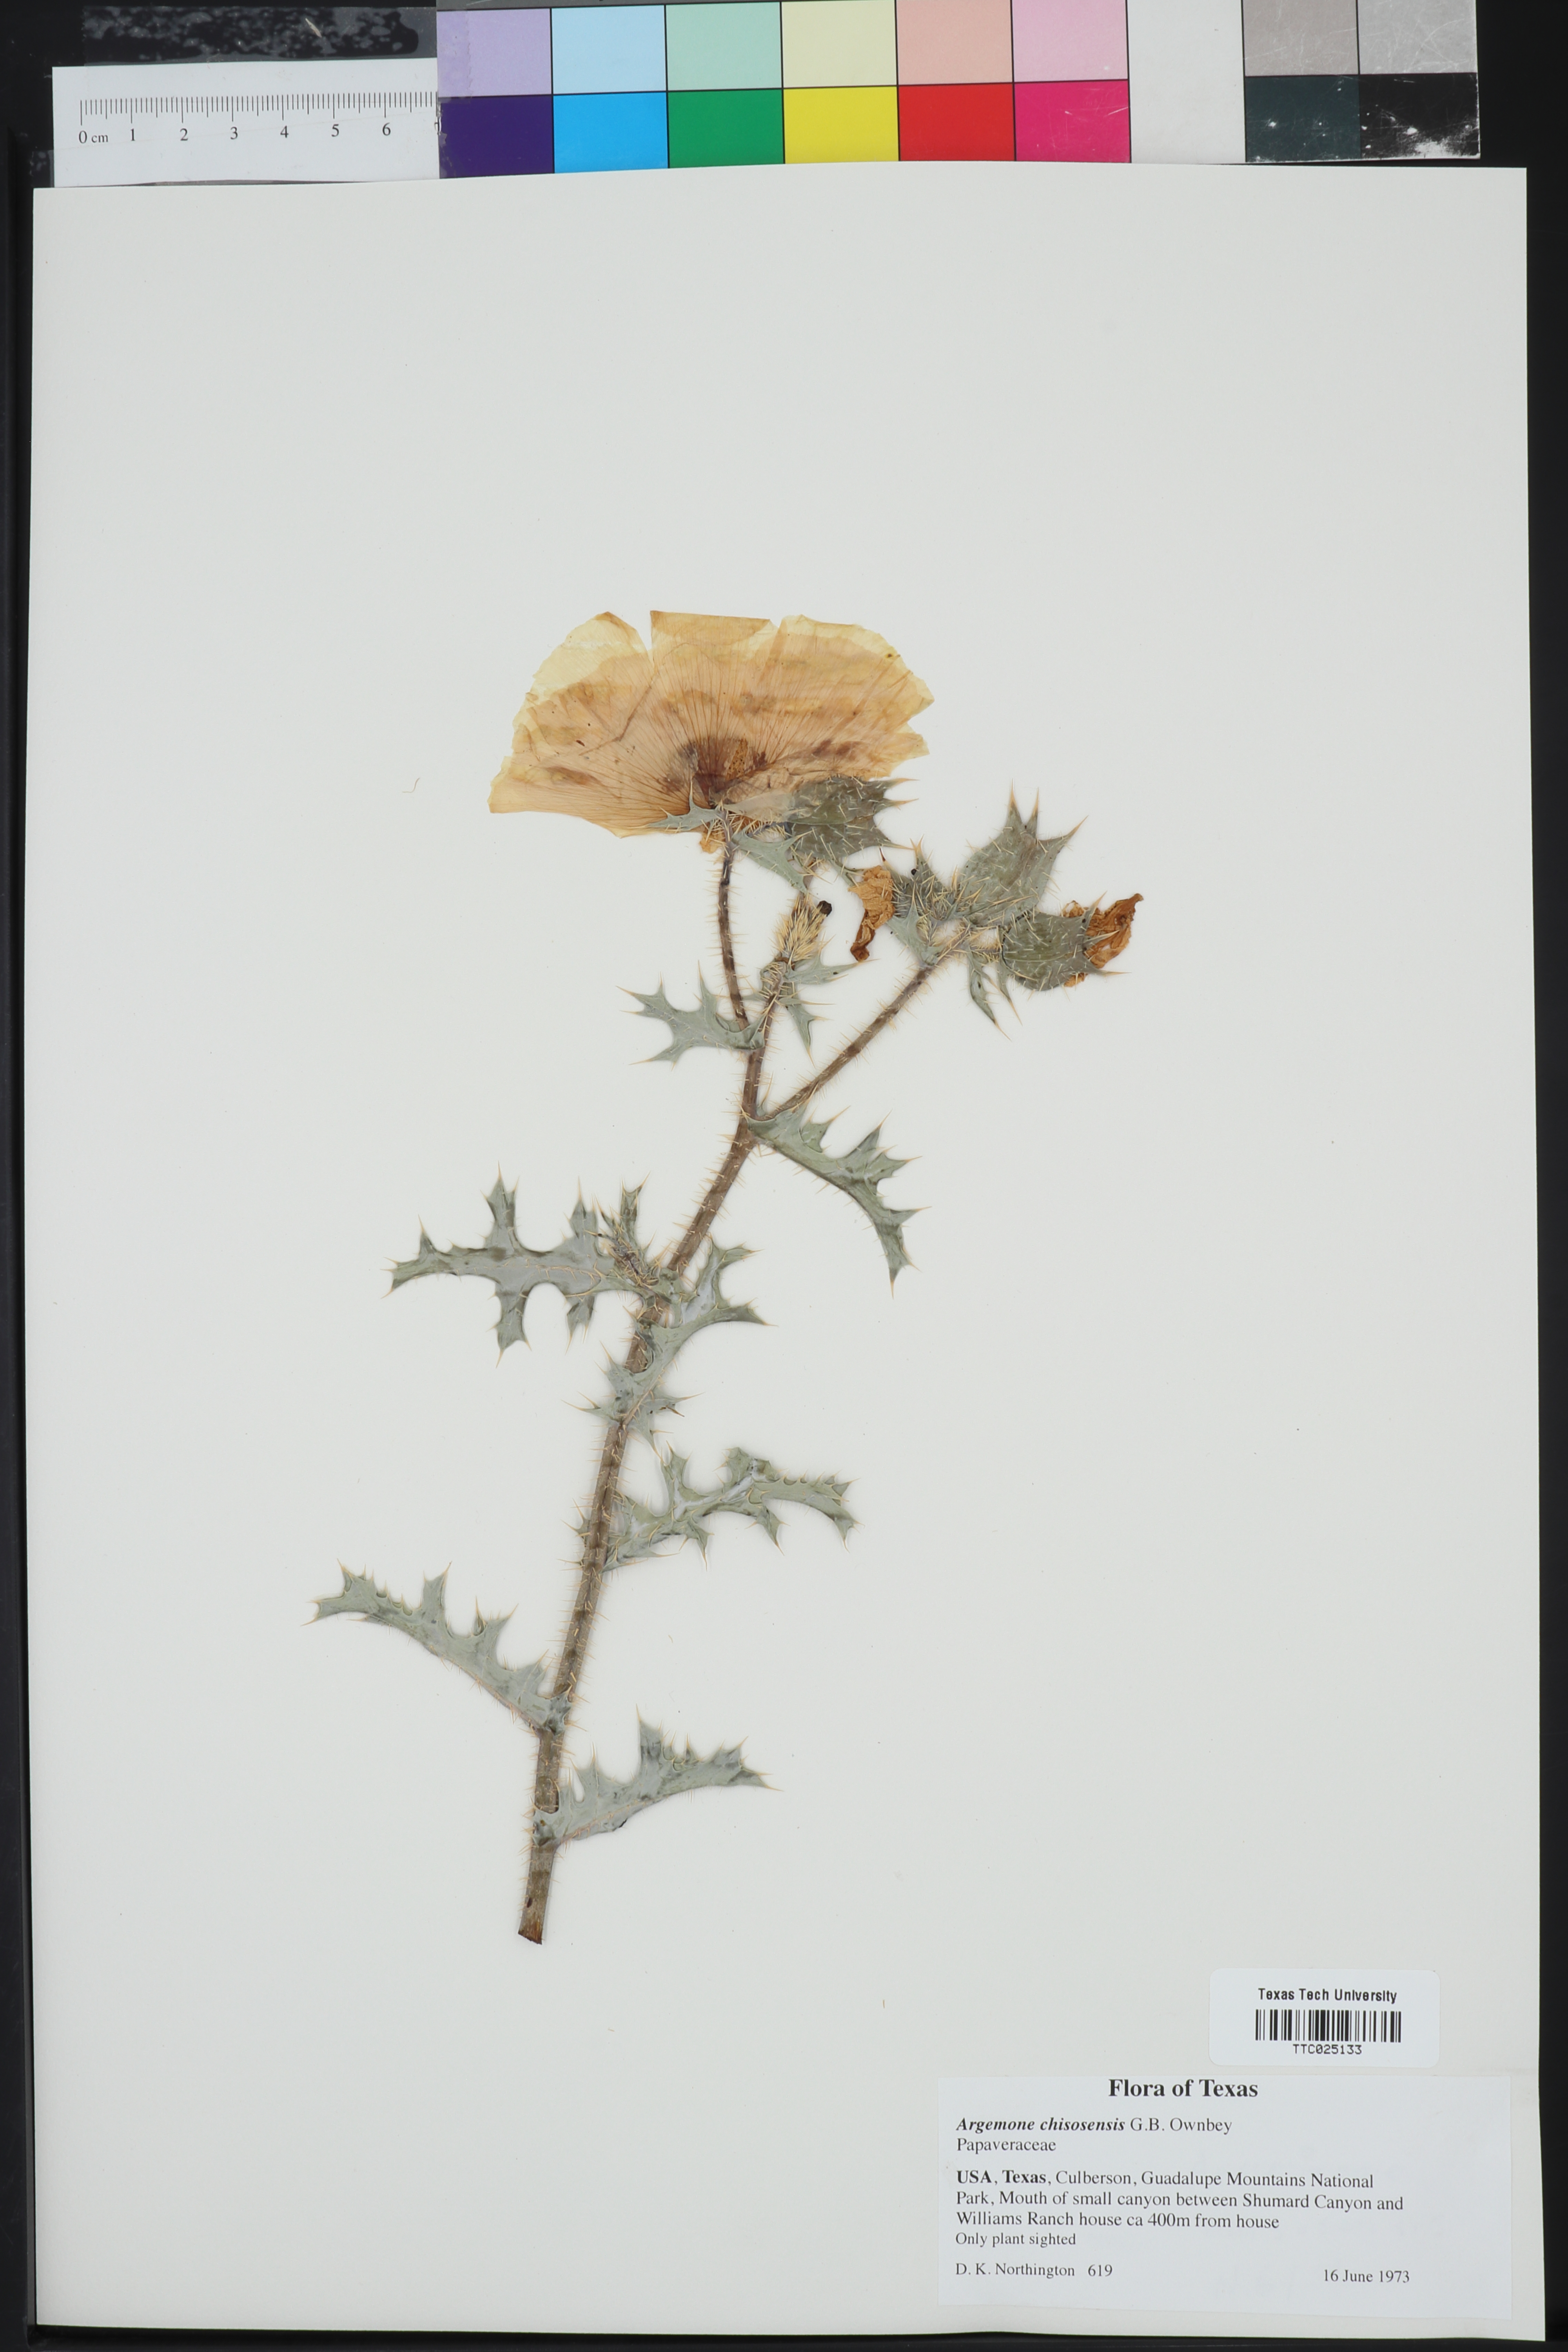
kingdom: Plantae
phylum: Tracheophyta
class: Magnoliopsida
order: Ranunculales
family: Papaveraceae
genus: Argemone
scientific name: Argemone chisosensis
